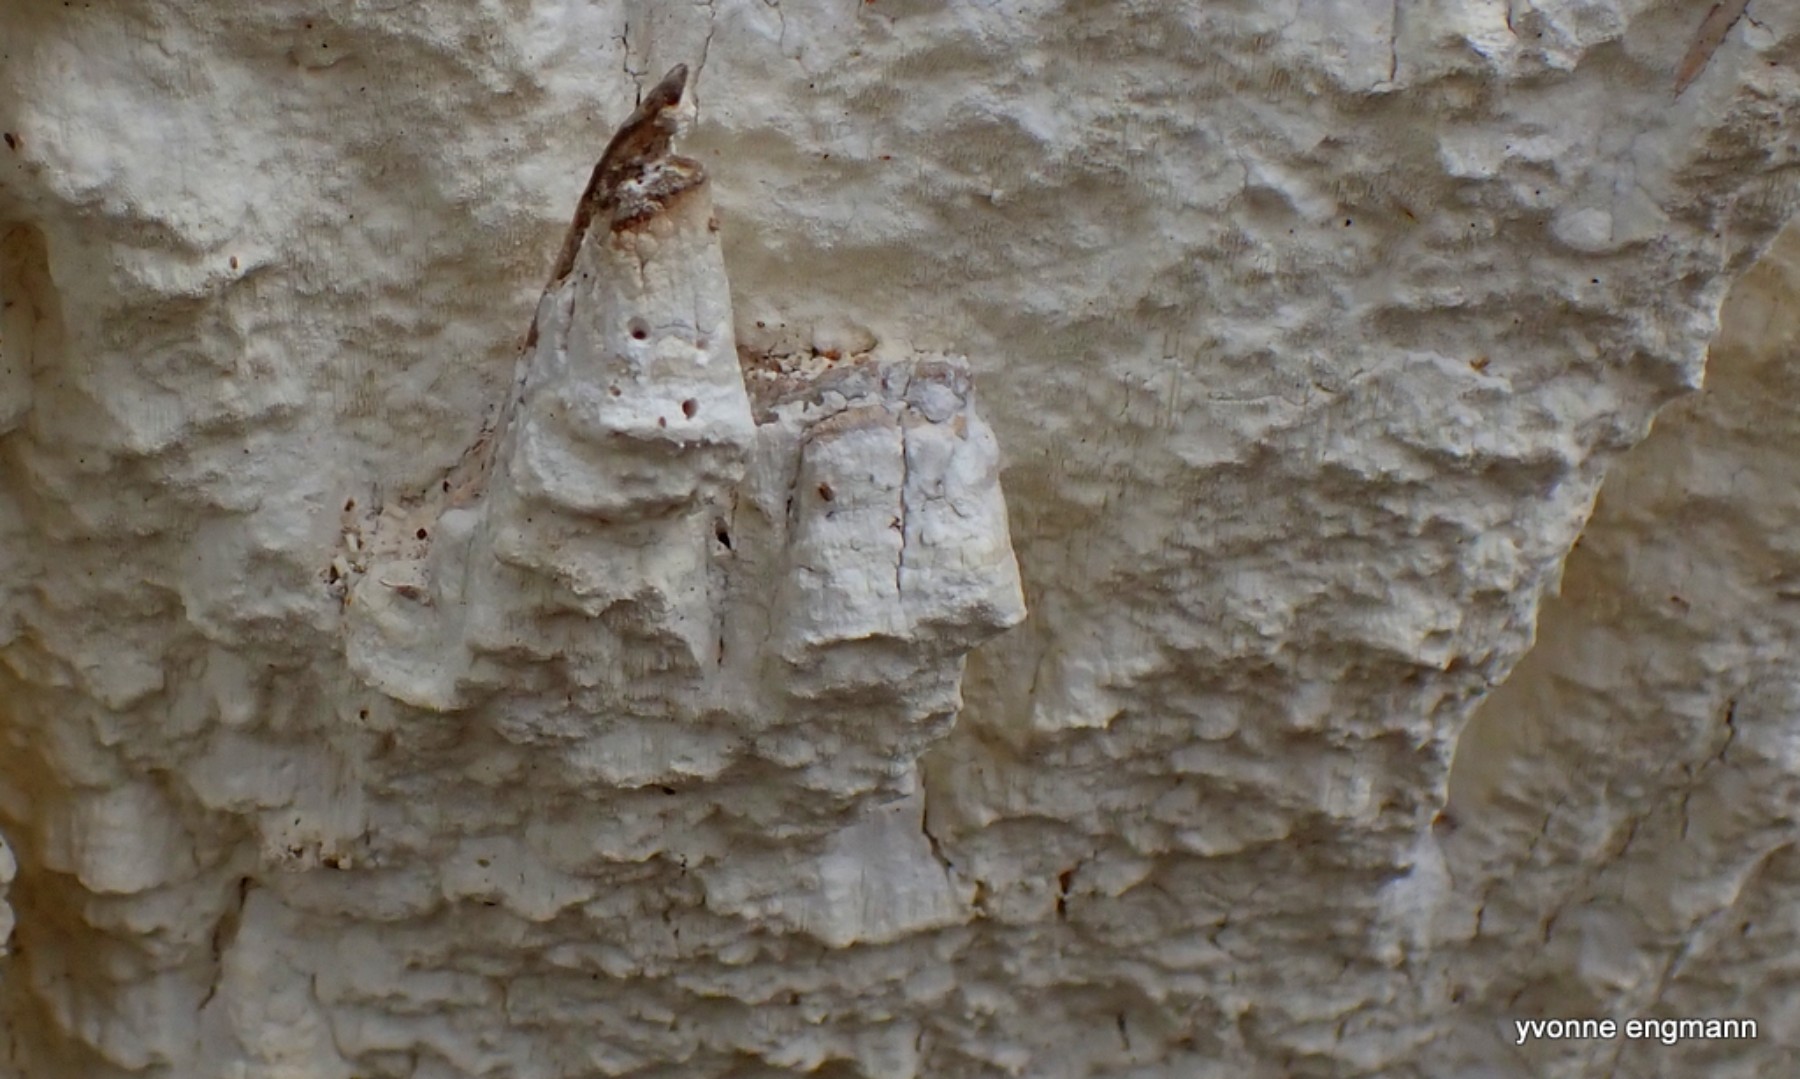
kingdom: Fungi
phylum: Basidiomycota
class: Agaricomycetes
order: Polyporales
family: Fomitopsidaceae
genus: Daedalea
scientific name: Daedalea xantha
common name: gul sejporesvamp
